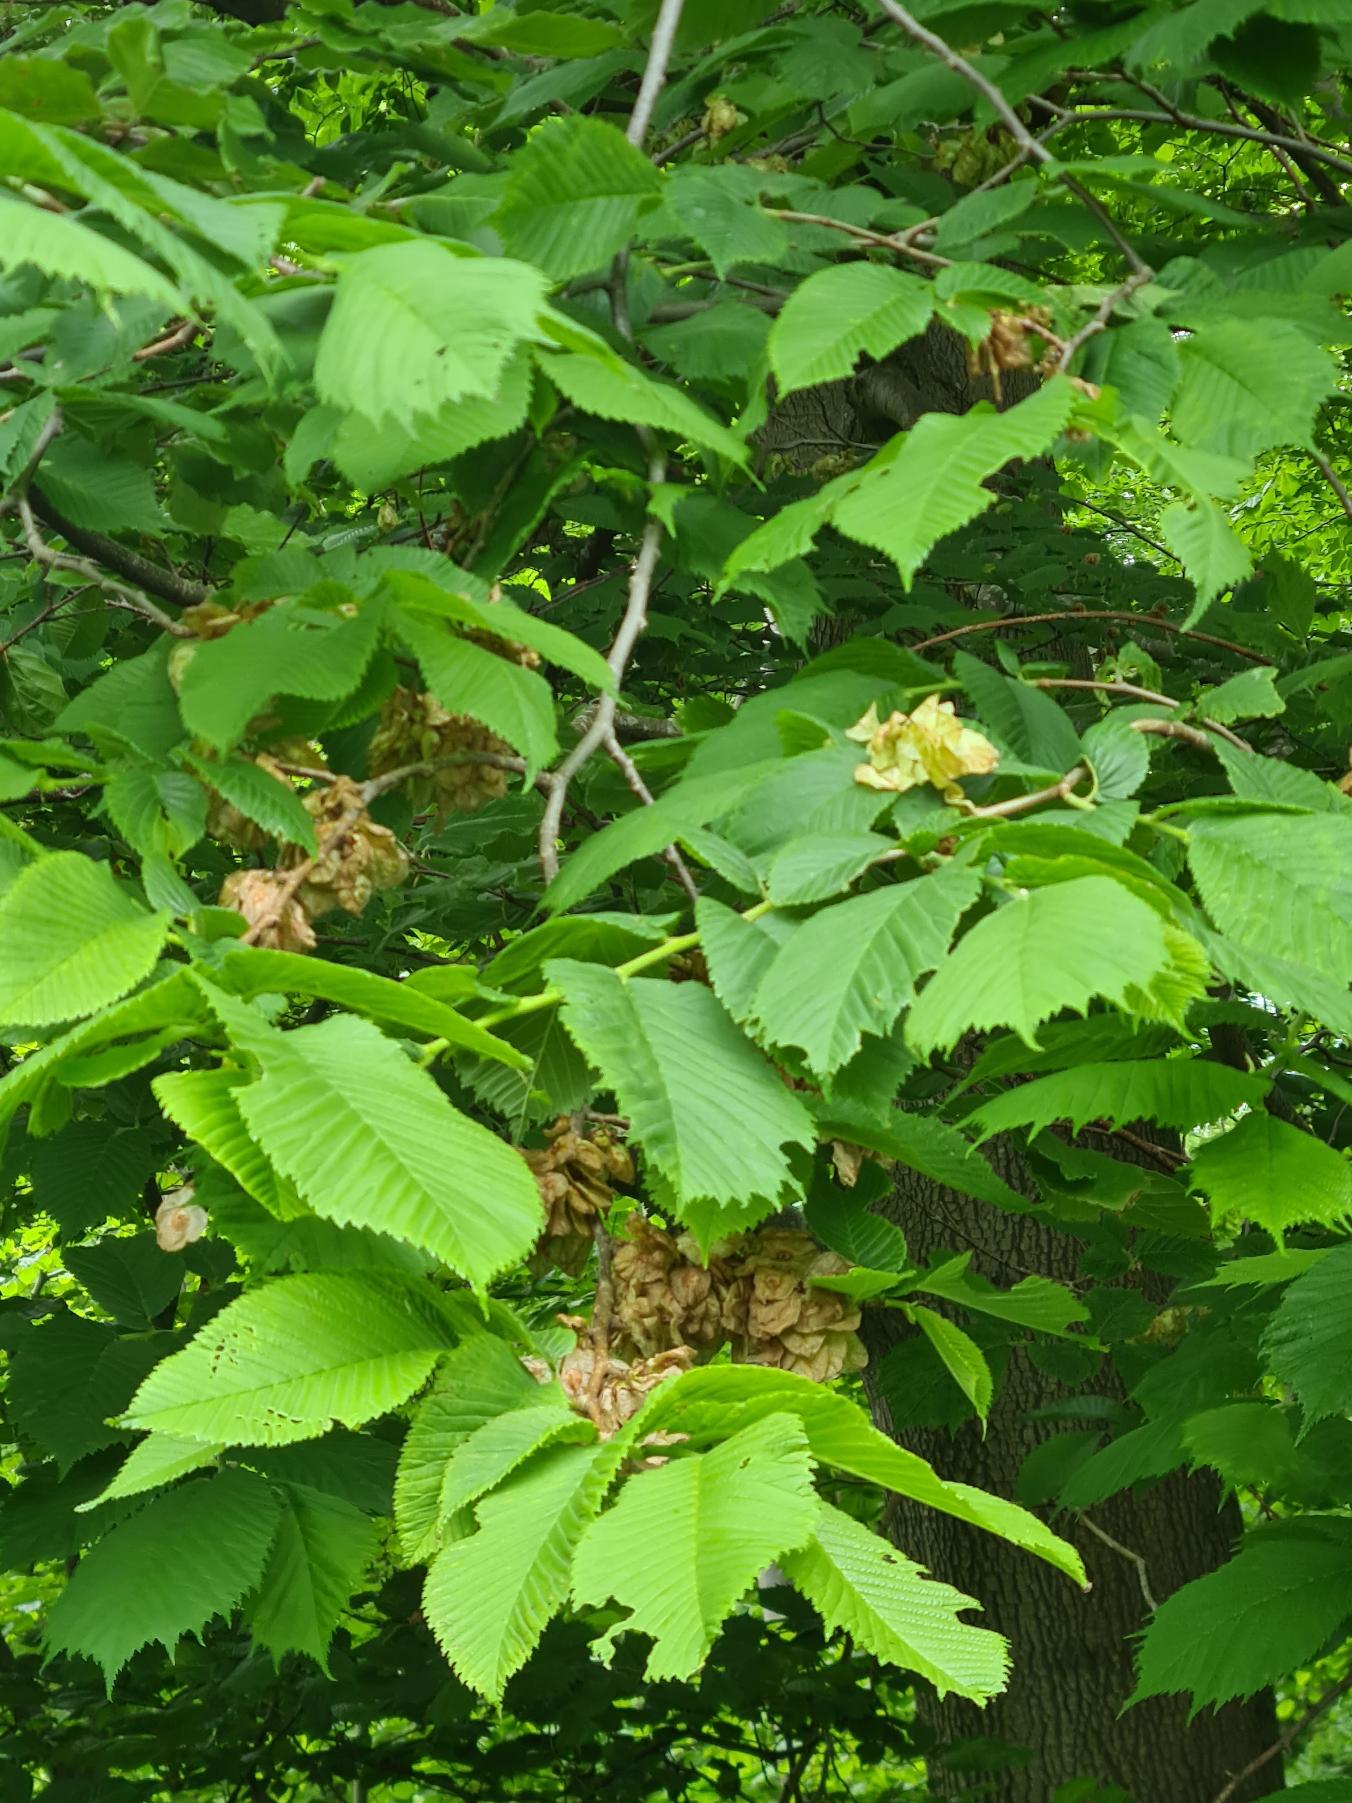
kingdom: Plantae
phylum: Tracheophyta
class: Magnoliopsida
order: Rosales
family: Ulmaceae
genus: Ulmus
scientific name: Ulmus glabra
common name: Skov-elm/storbladet elm
